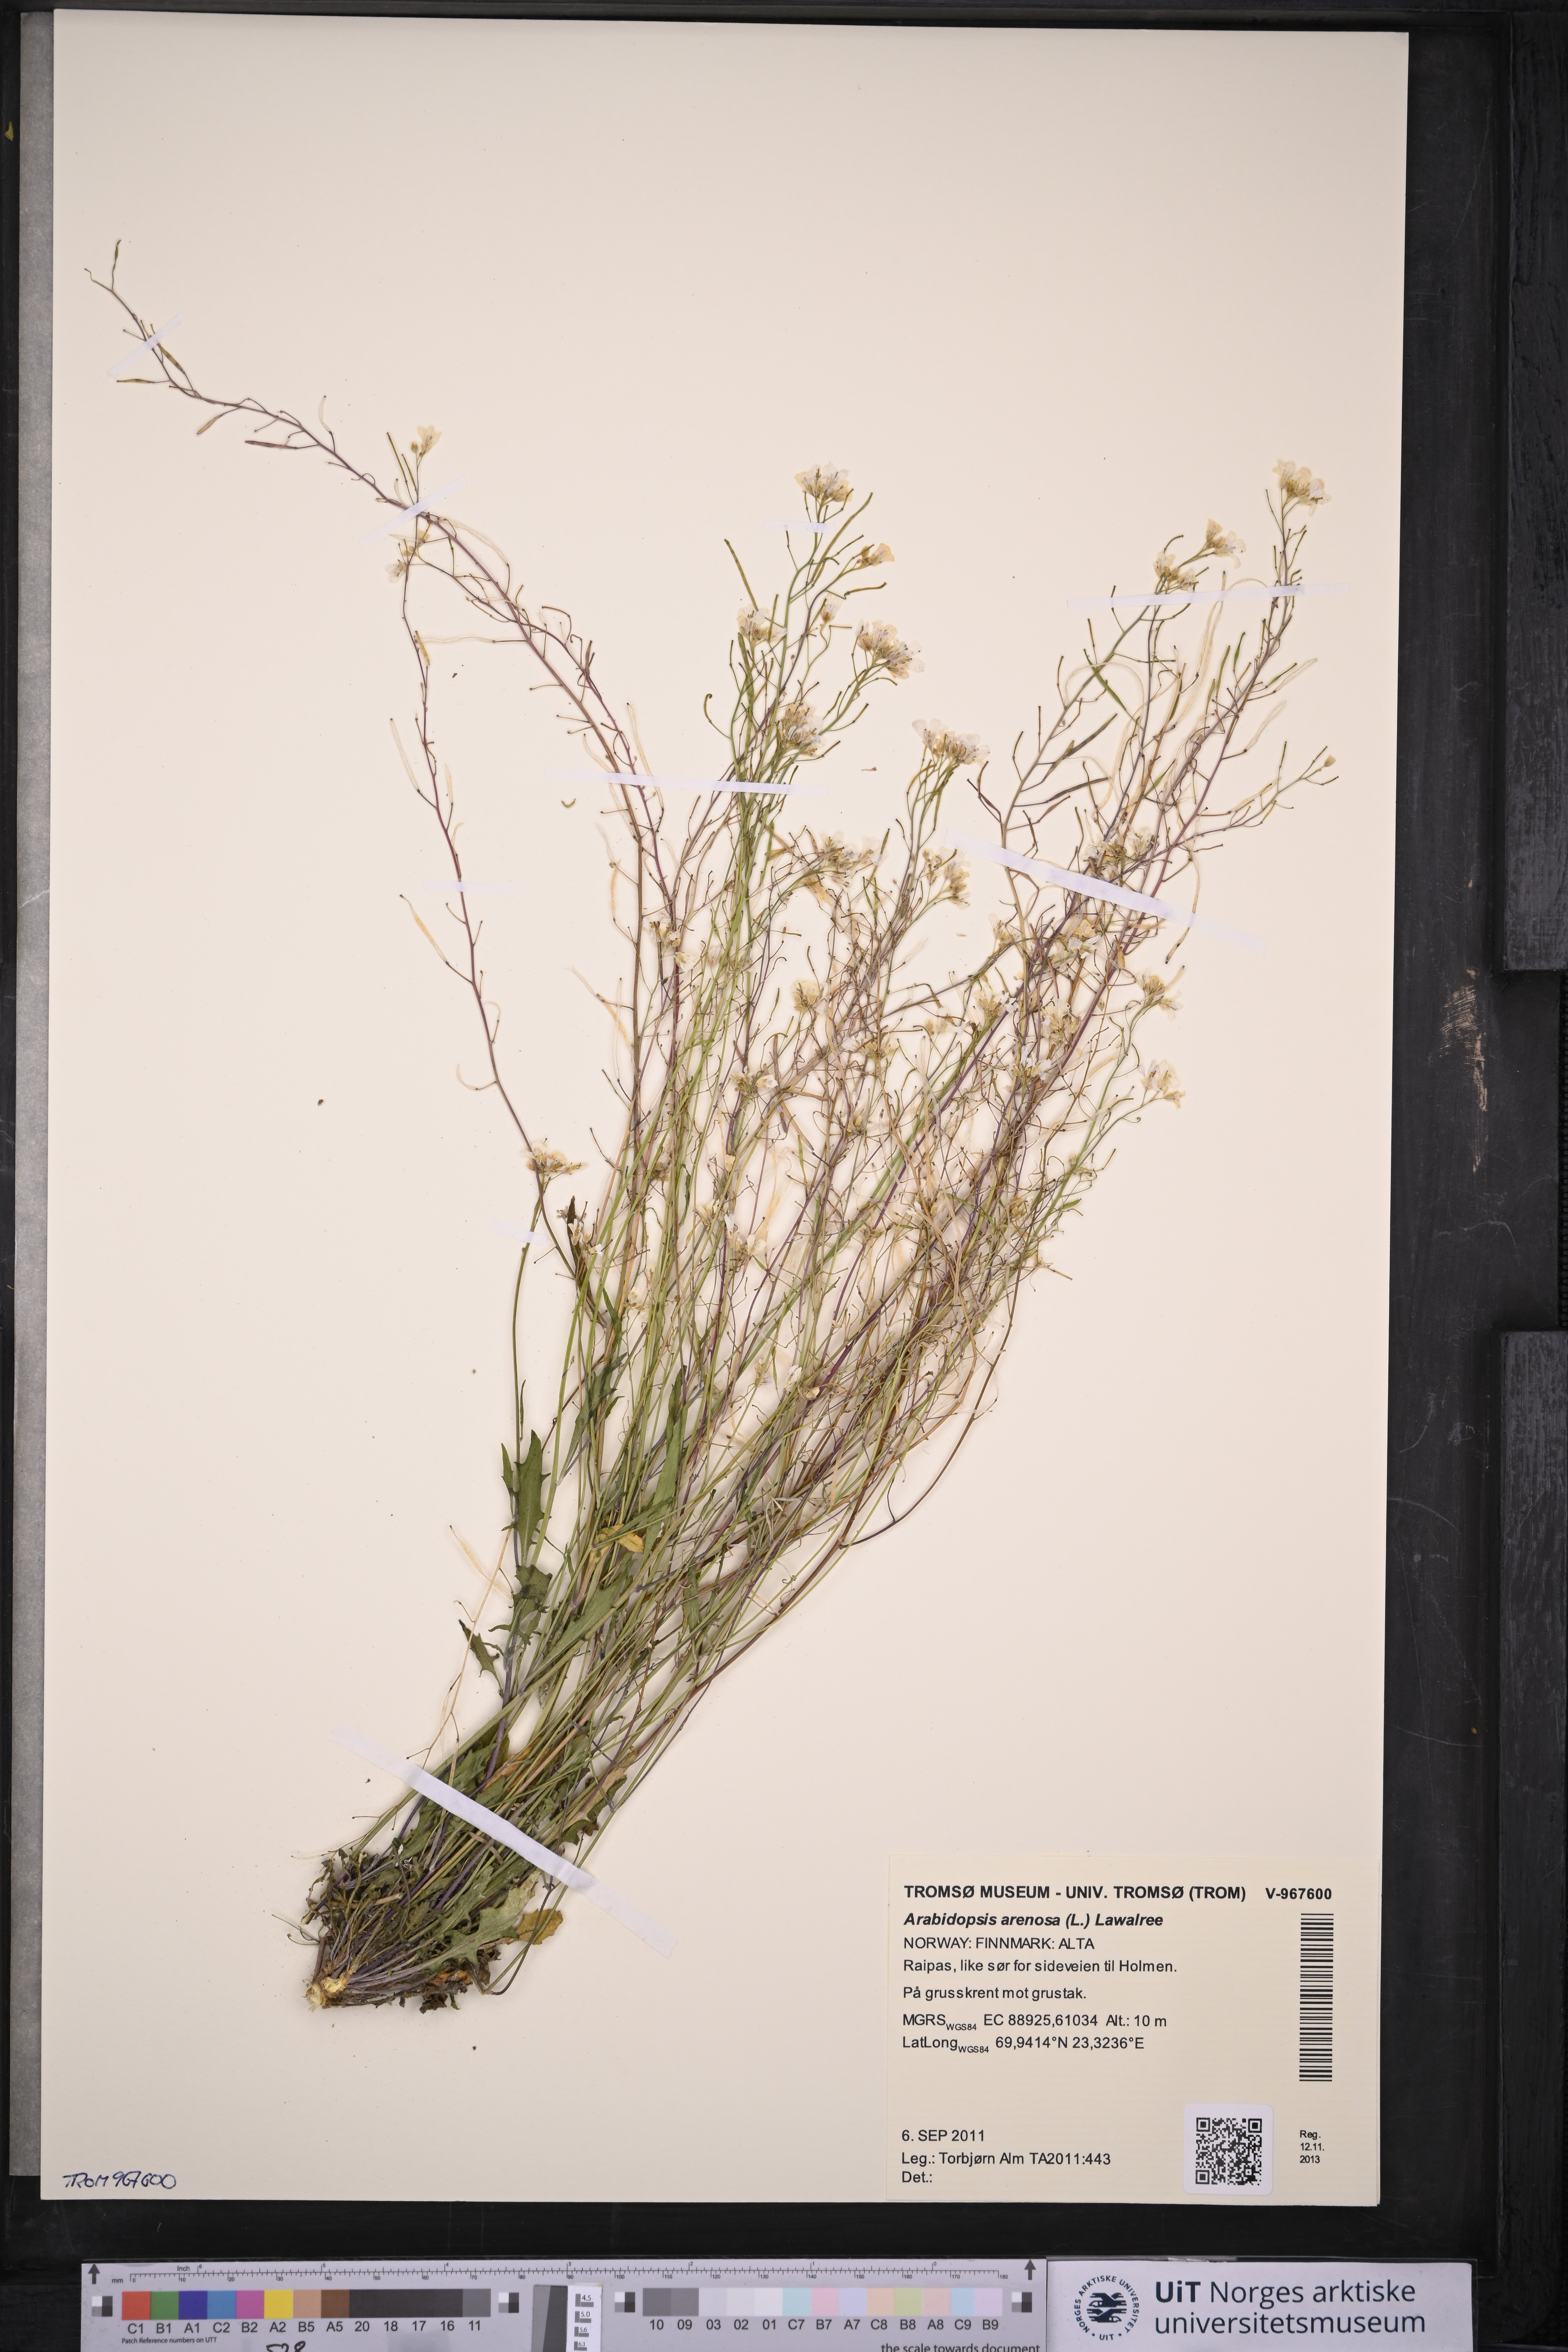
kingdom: Plantae
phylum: Tracheophyta
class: Magnoliopsida
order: Brassicales
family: Brassicaceae
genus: Arabidopsis
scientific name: Arabidopsis arenosa
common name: Sand rock-cress
